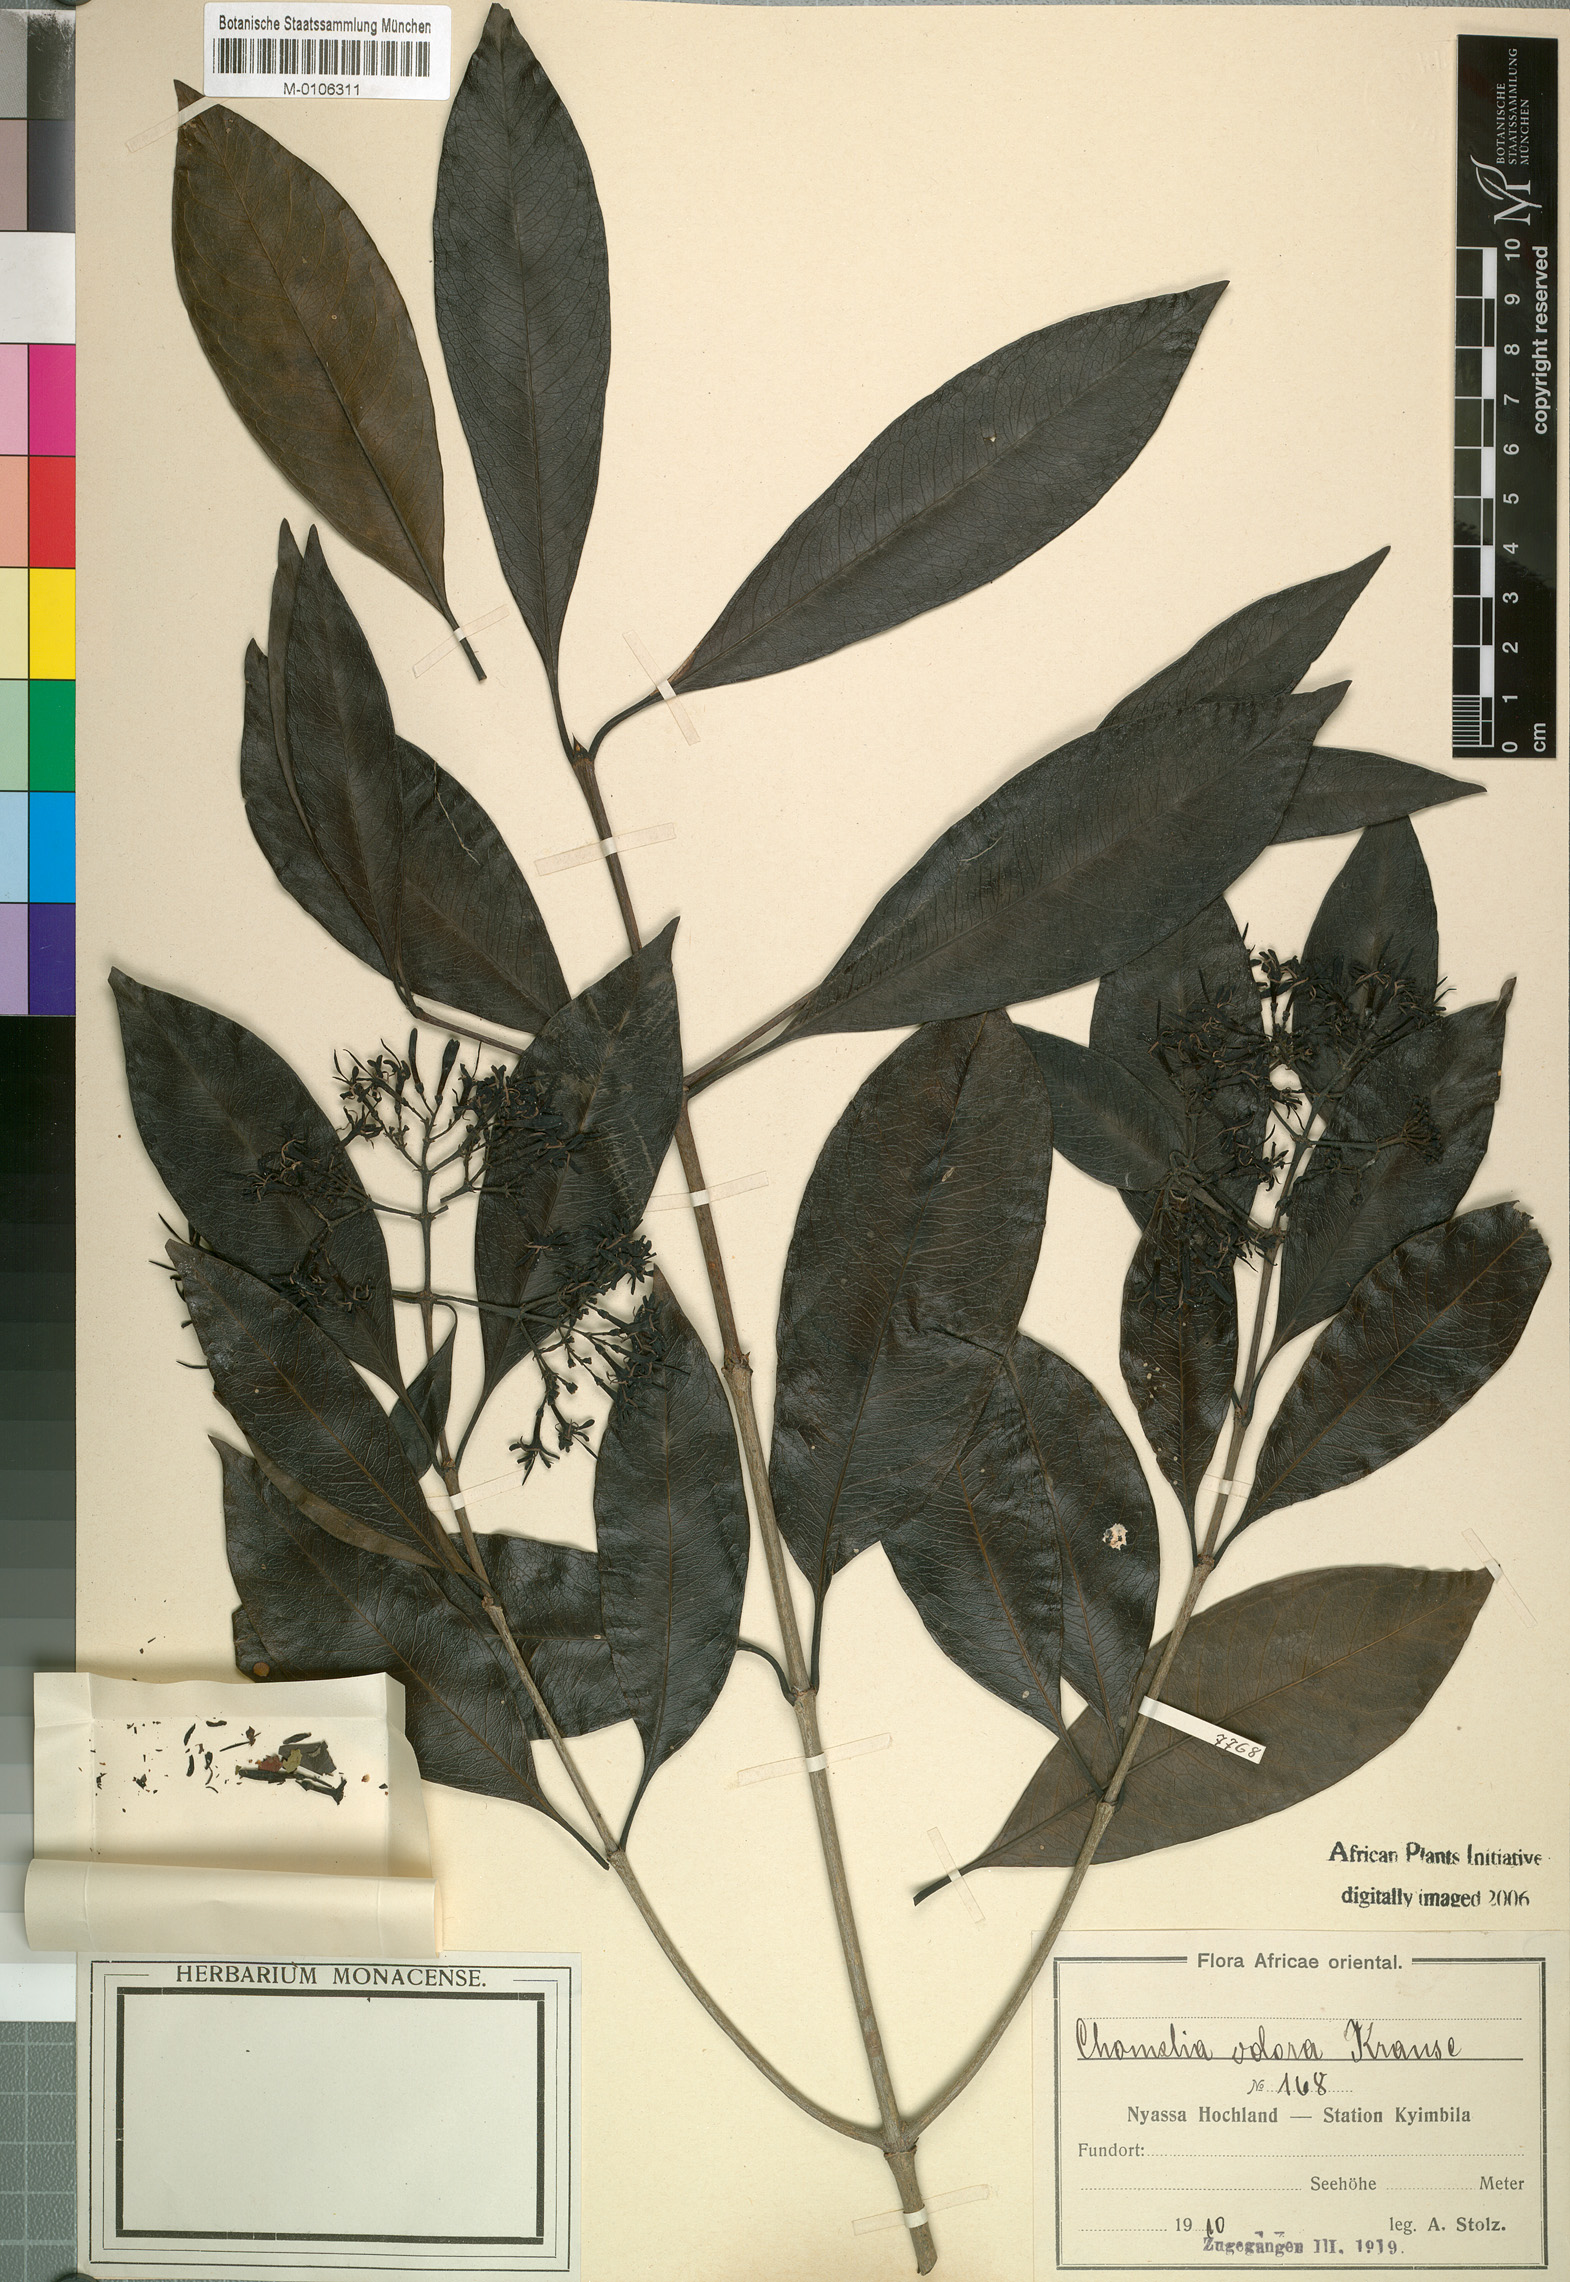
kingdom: Plantae
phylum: Tracheophyta
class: Magnoliopsida
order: Gentianales
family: Rubiaceae
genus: Coptosperma
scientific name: Coptosperma neurophyllum
